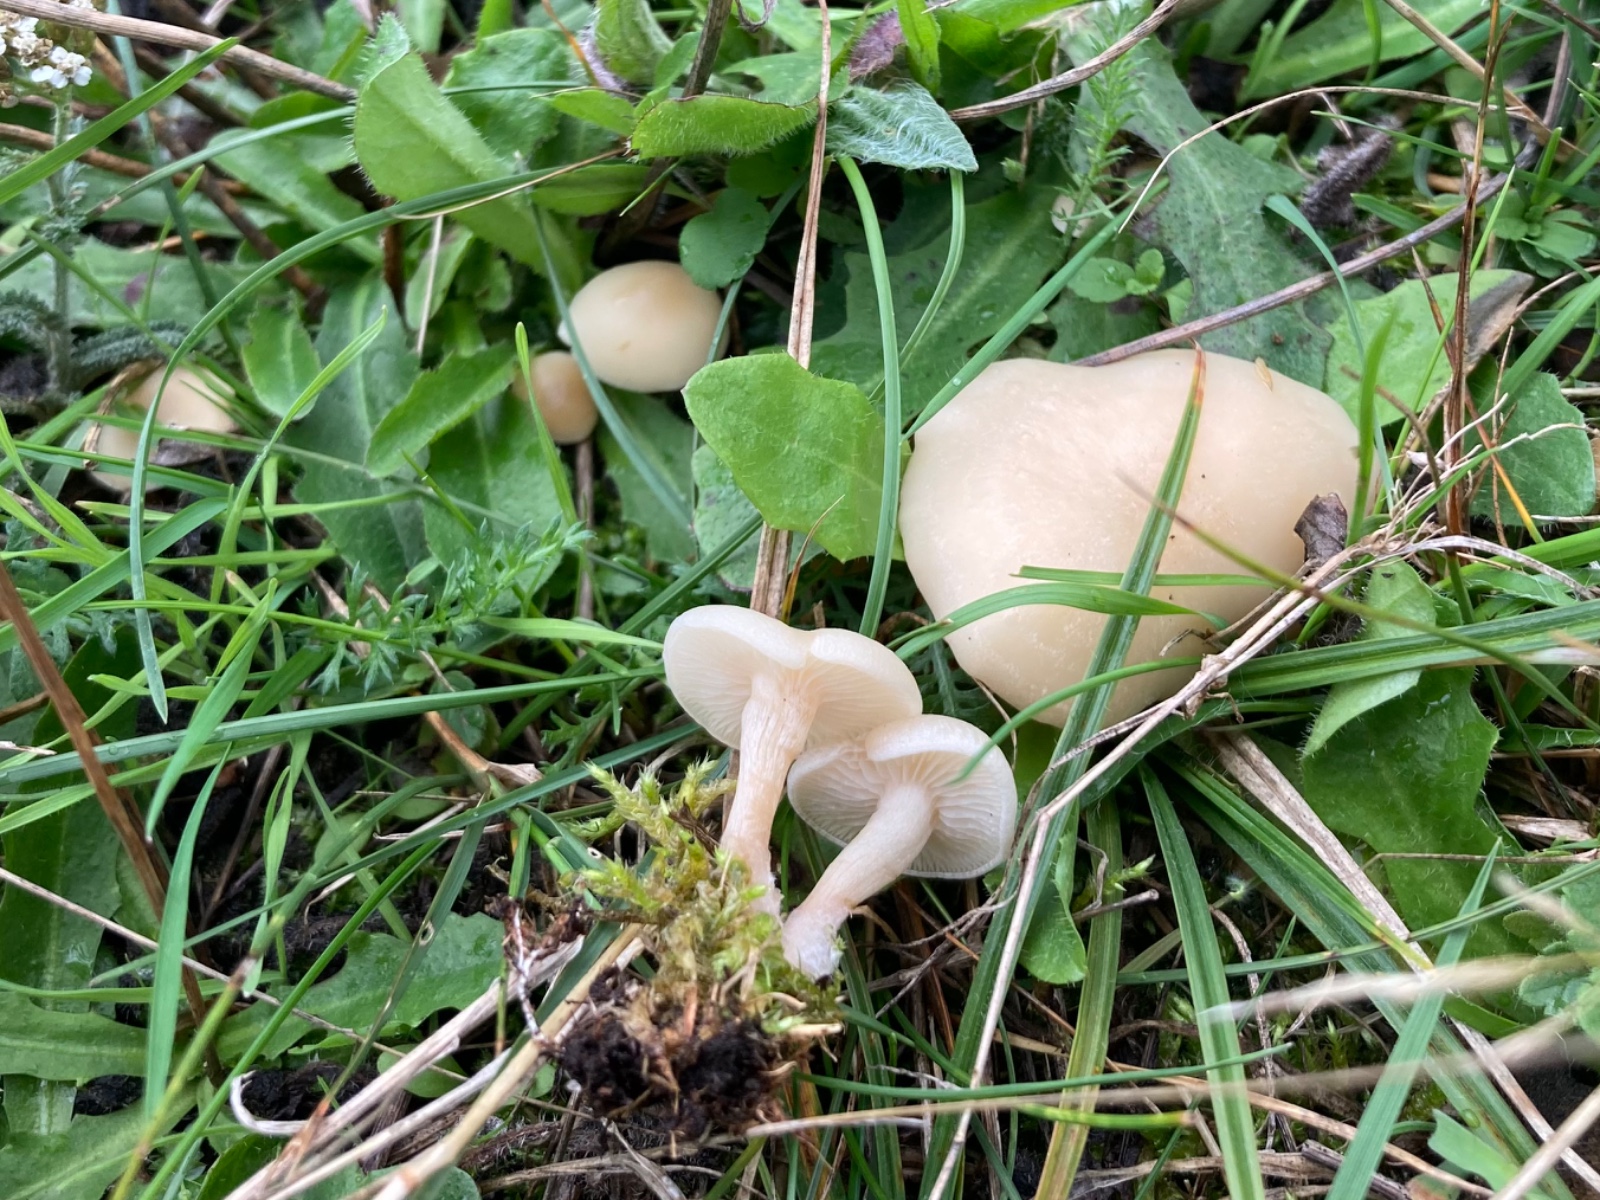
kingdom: Fungi
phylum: Basidiomycota
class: Agaricomycetes
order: Agaricales
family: Hygrophoraceae
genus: Cuphophyllus
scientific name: Cuphophyllus virgineus
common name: snehvid vokshat
